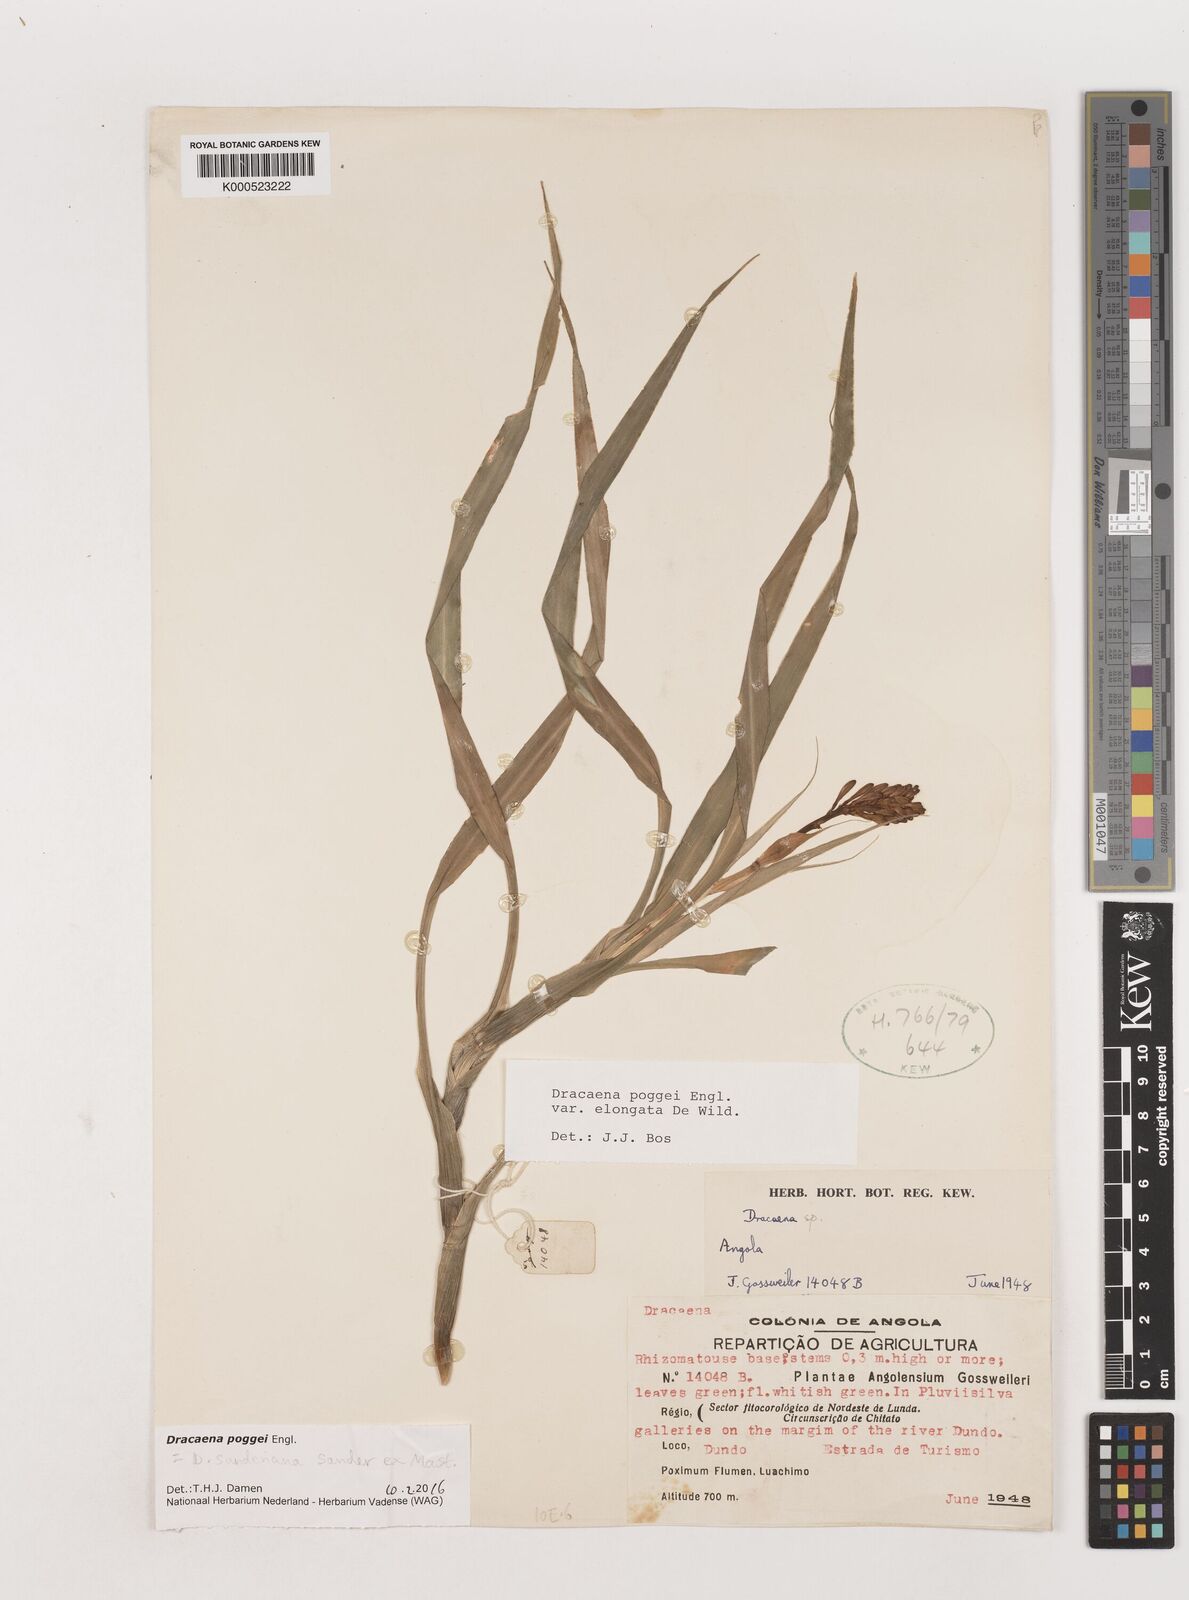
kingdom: Plantae
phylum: Tracheophyta
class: Liliopsida
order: Asparagales
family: Asparagaceae
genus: Dracaena
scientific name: Dracaena sanderiana
